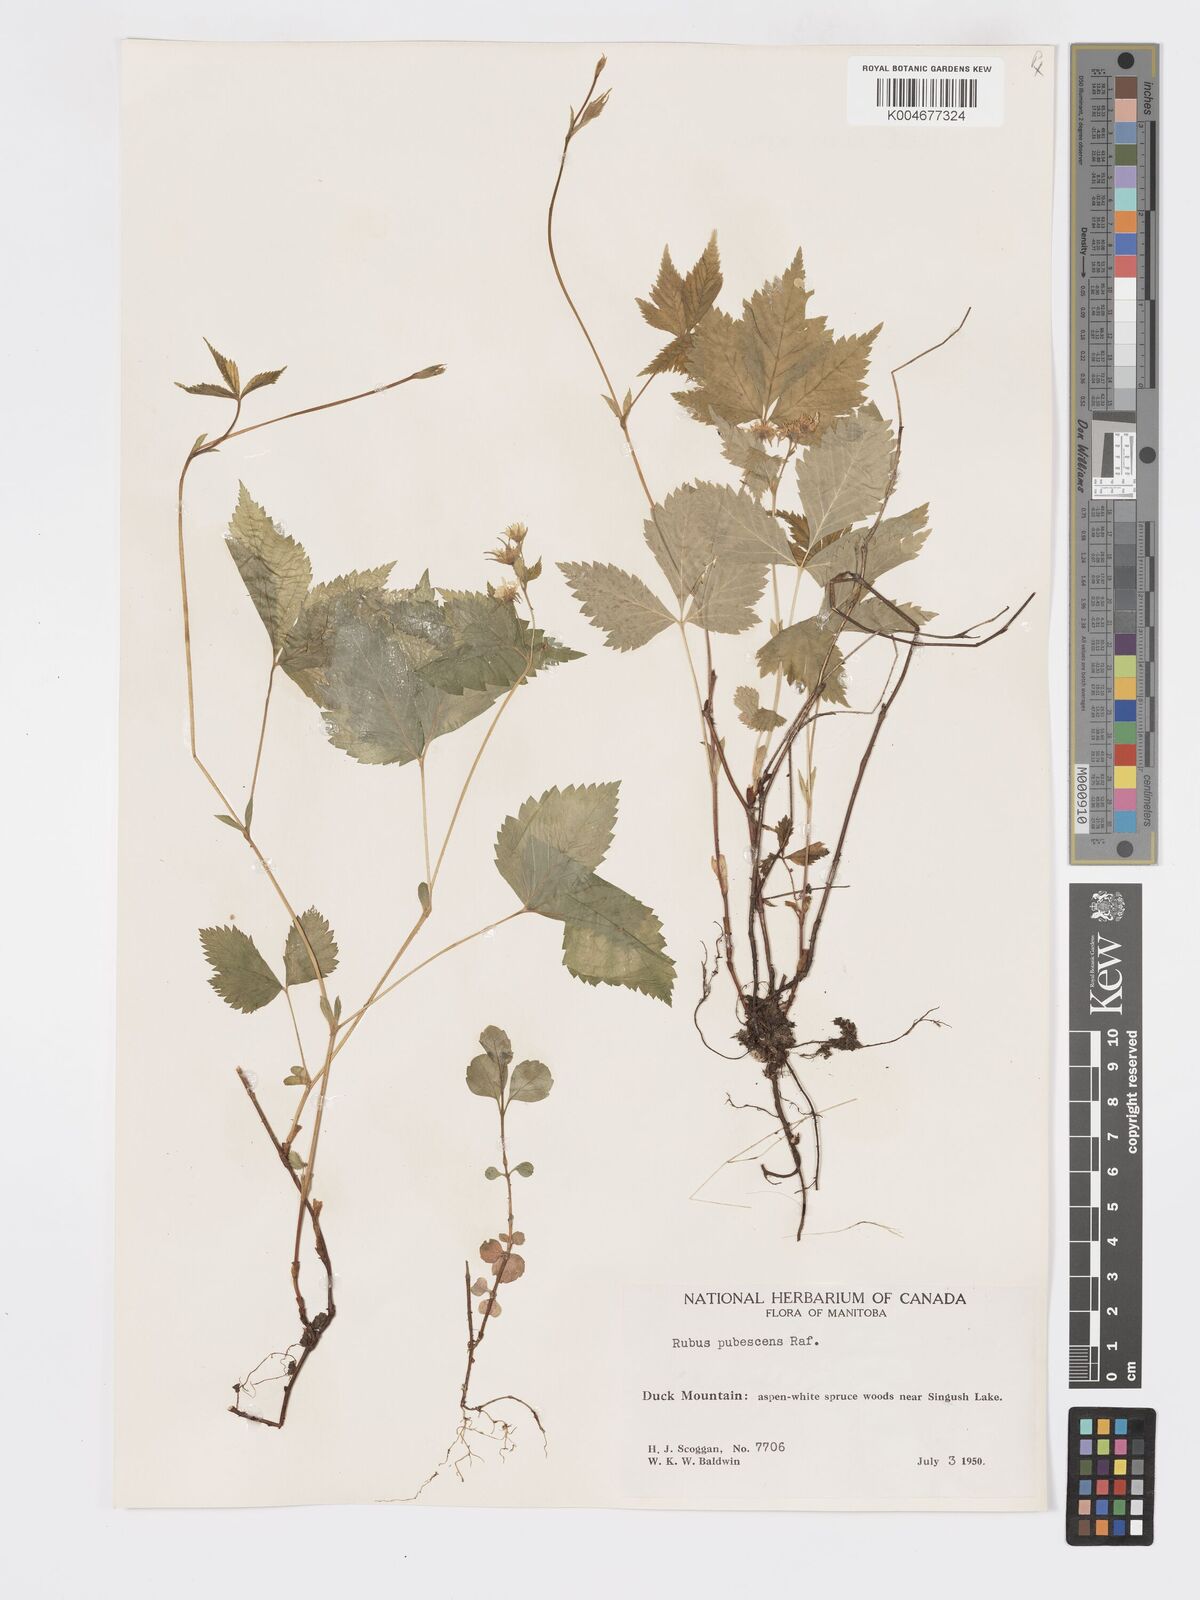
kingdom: Plantae
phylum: Tracheophyta
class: Magnoliopsida
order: Rosales
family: Rosaceae
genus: Rubus
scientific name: Rubus
